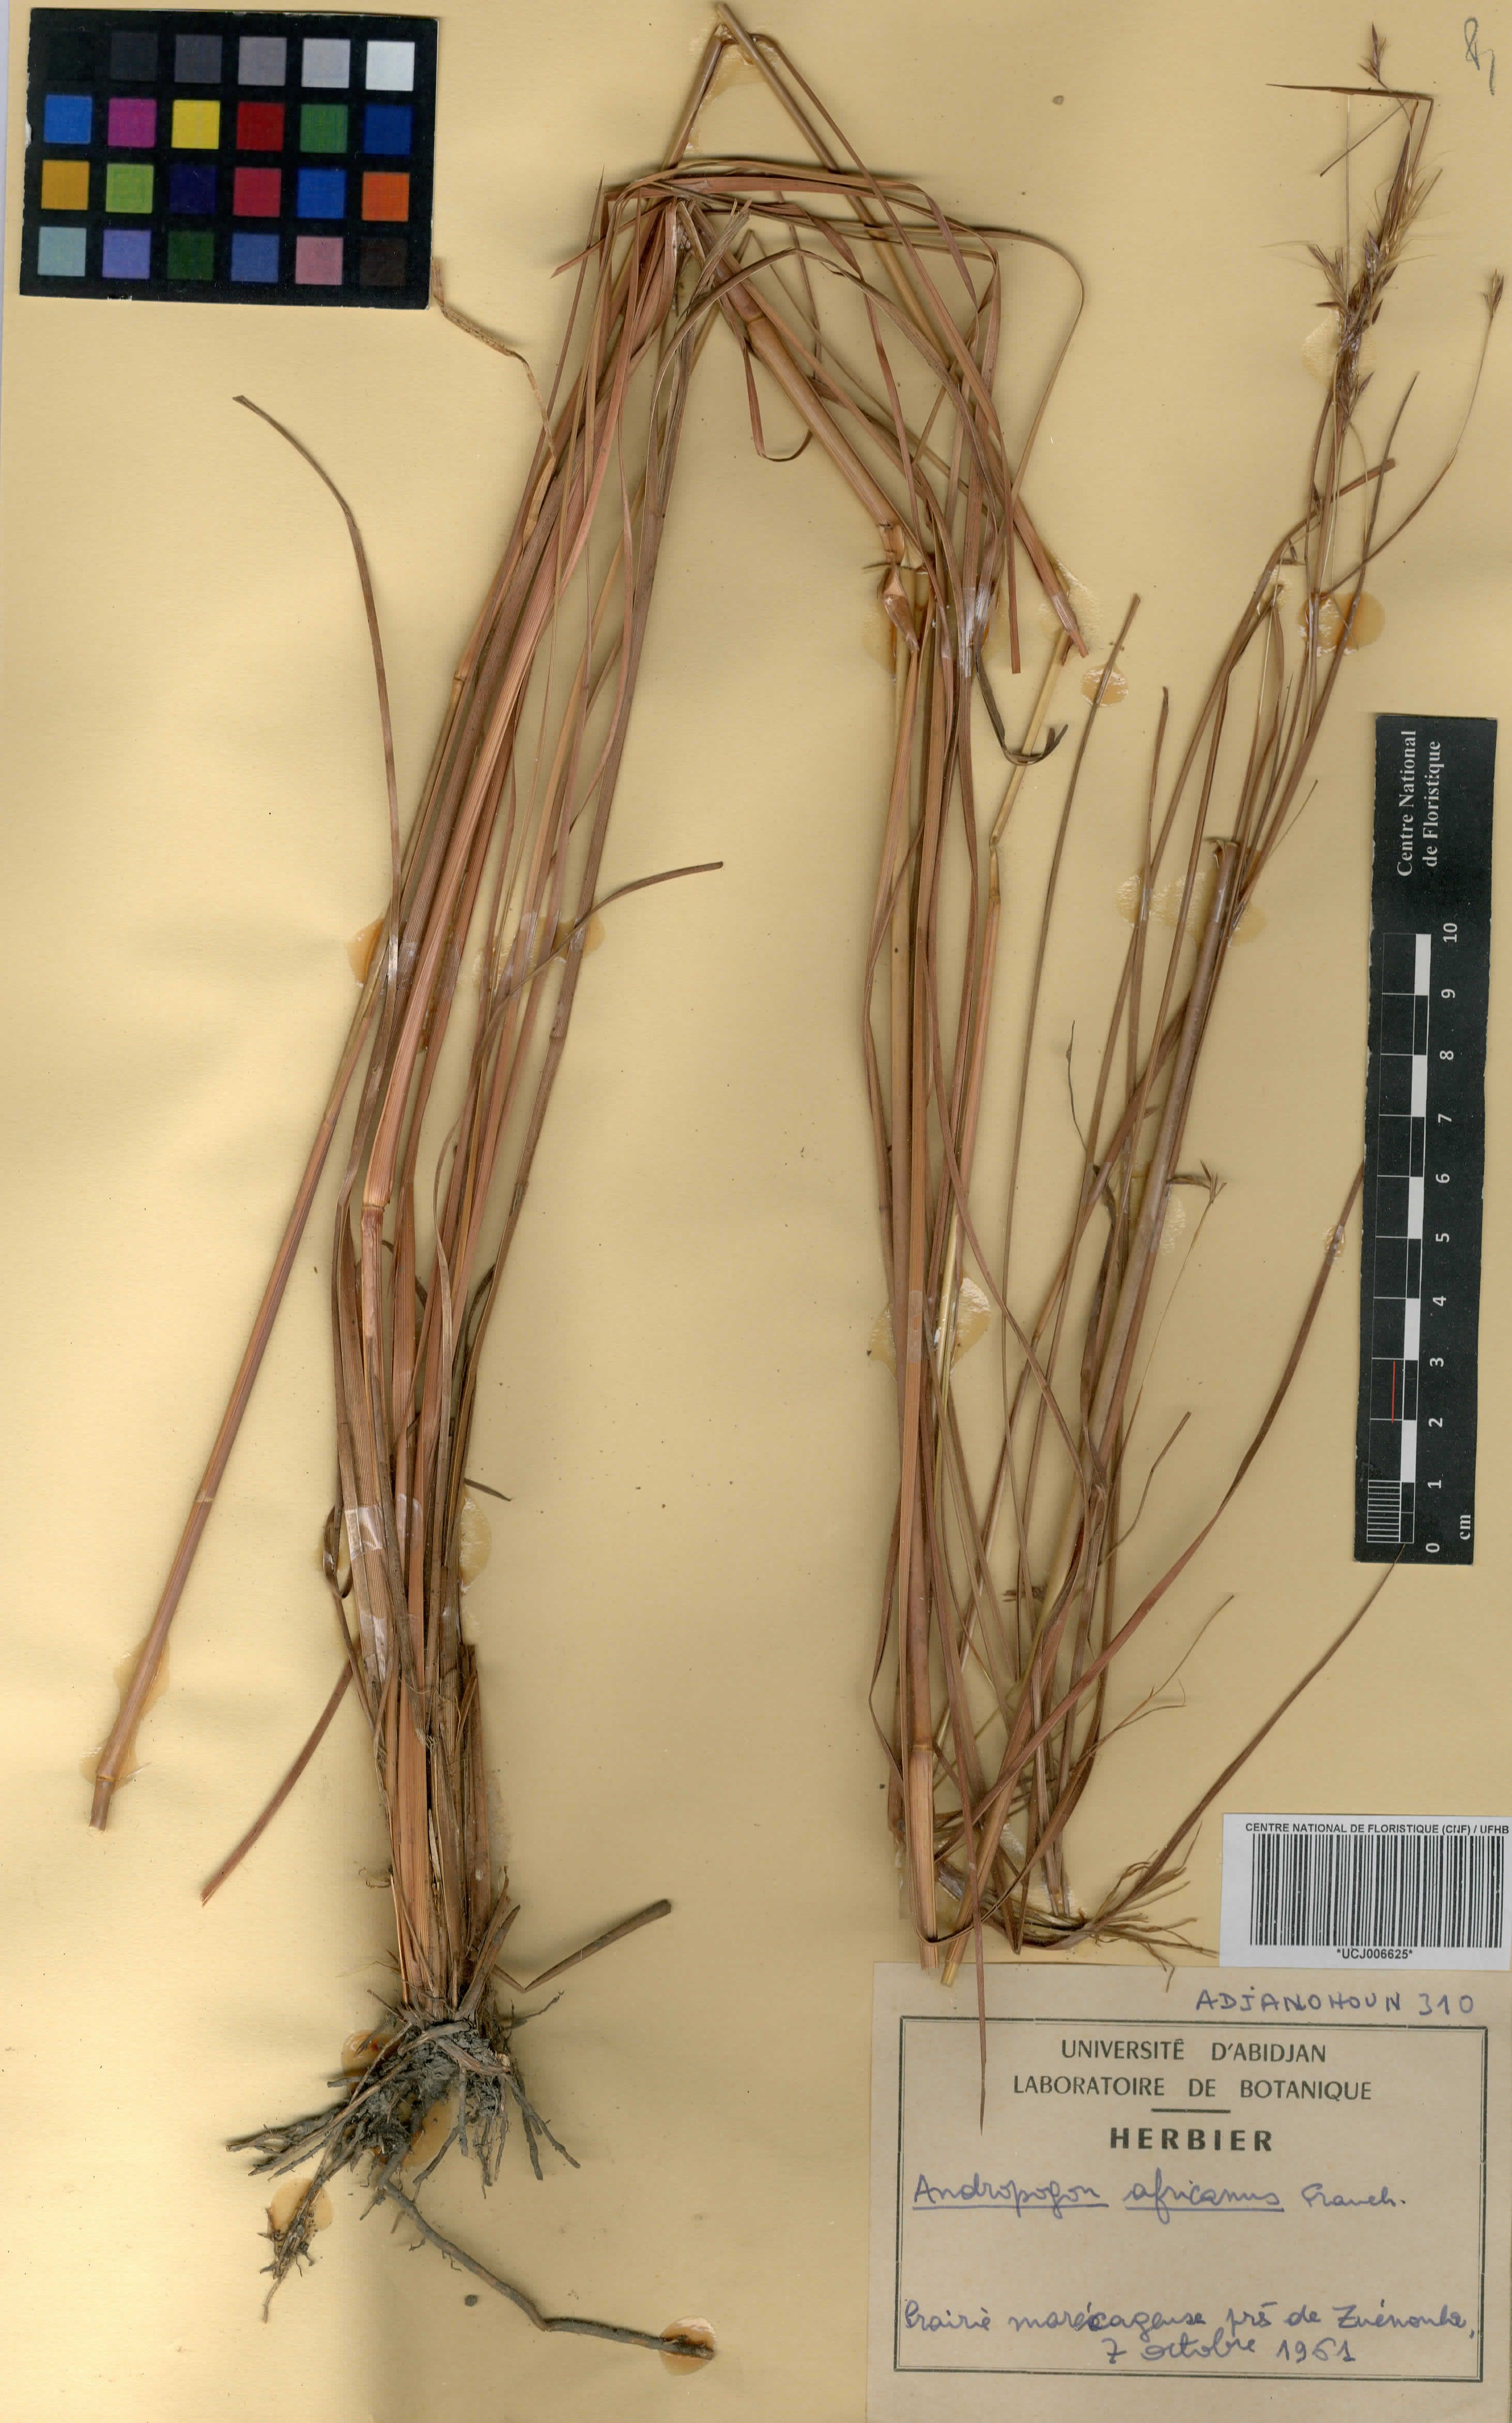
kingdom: Plantae
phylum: Tracheophyta
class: Liliopsida
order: Poales
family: Poaceae
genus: Andropogon
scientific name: Andropogon africanus
